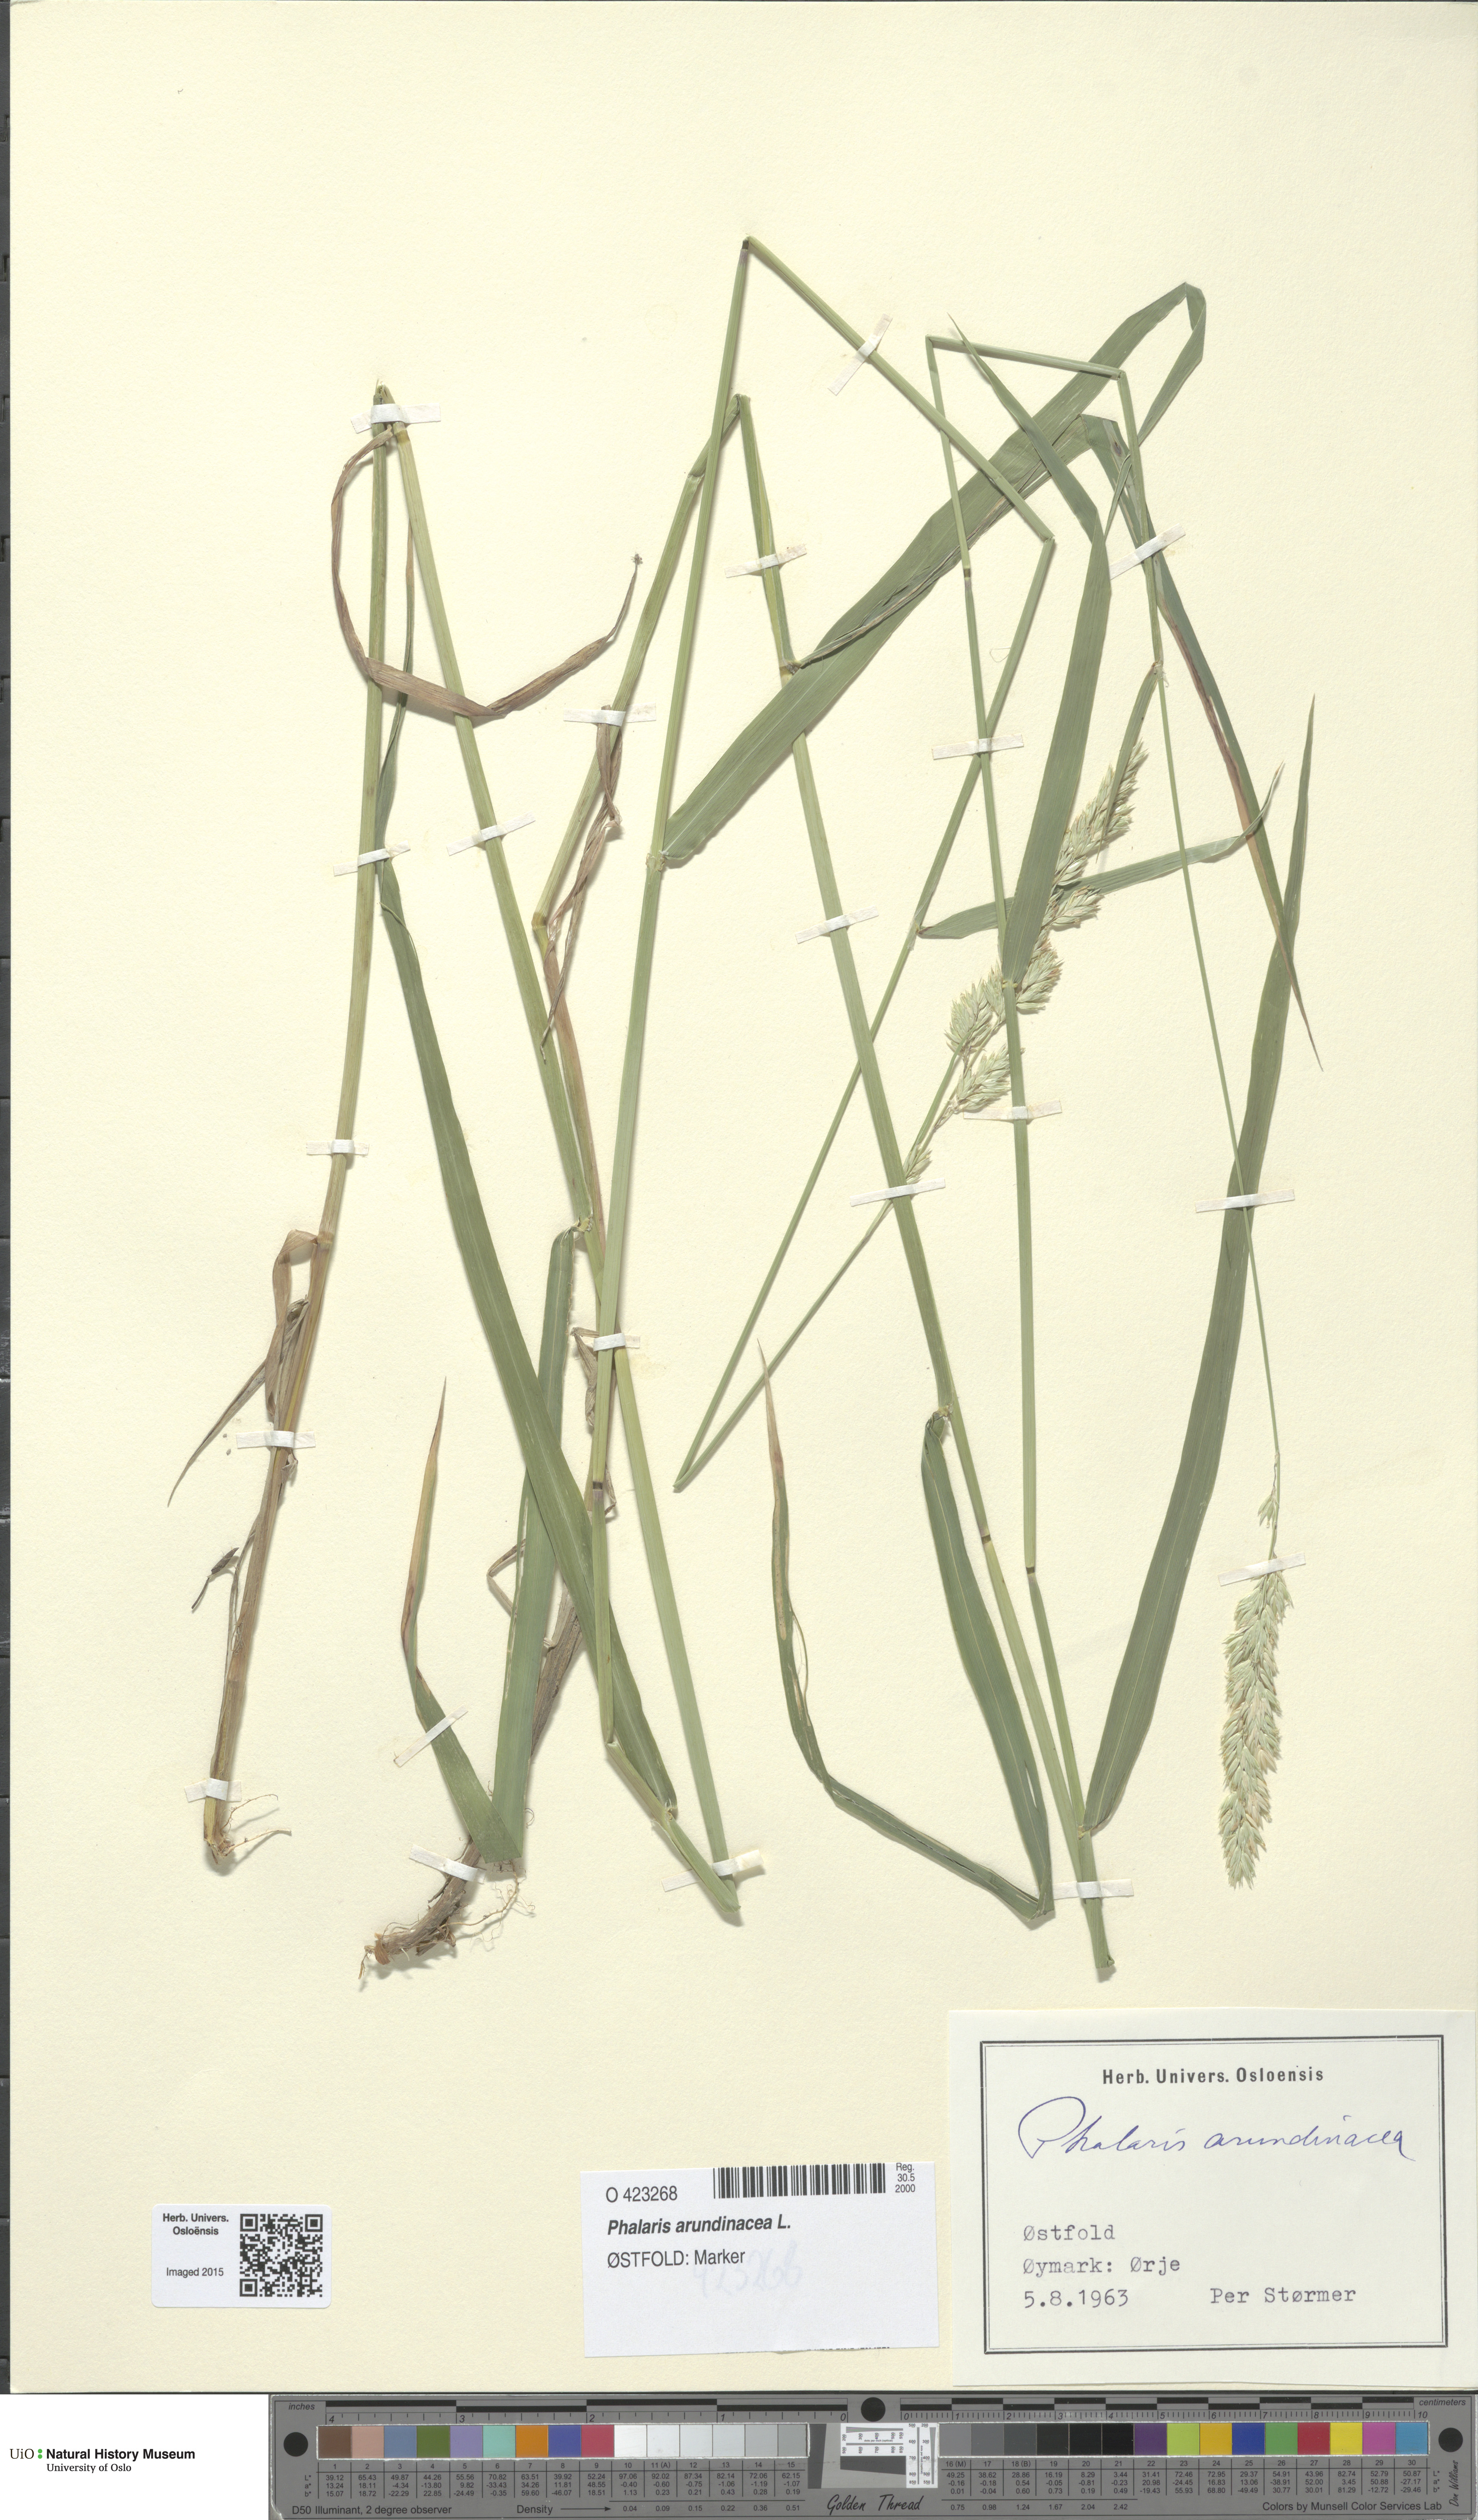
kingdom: Plantae
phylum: Tracheophyta
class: Liliopsida
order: Poales
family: Poaceae
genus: Phalaris
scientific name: Phalaris arundinacea
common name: Reed canary-grass
